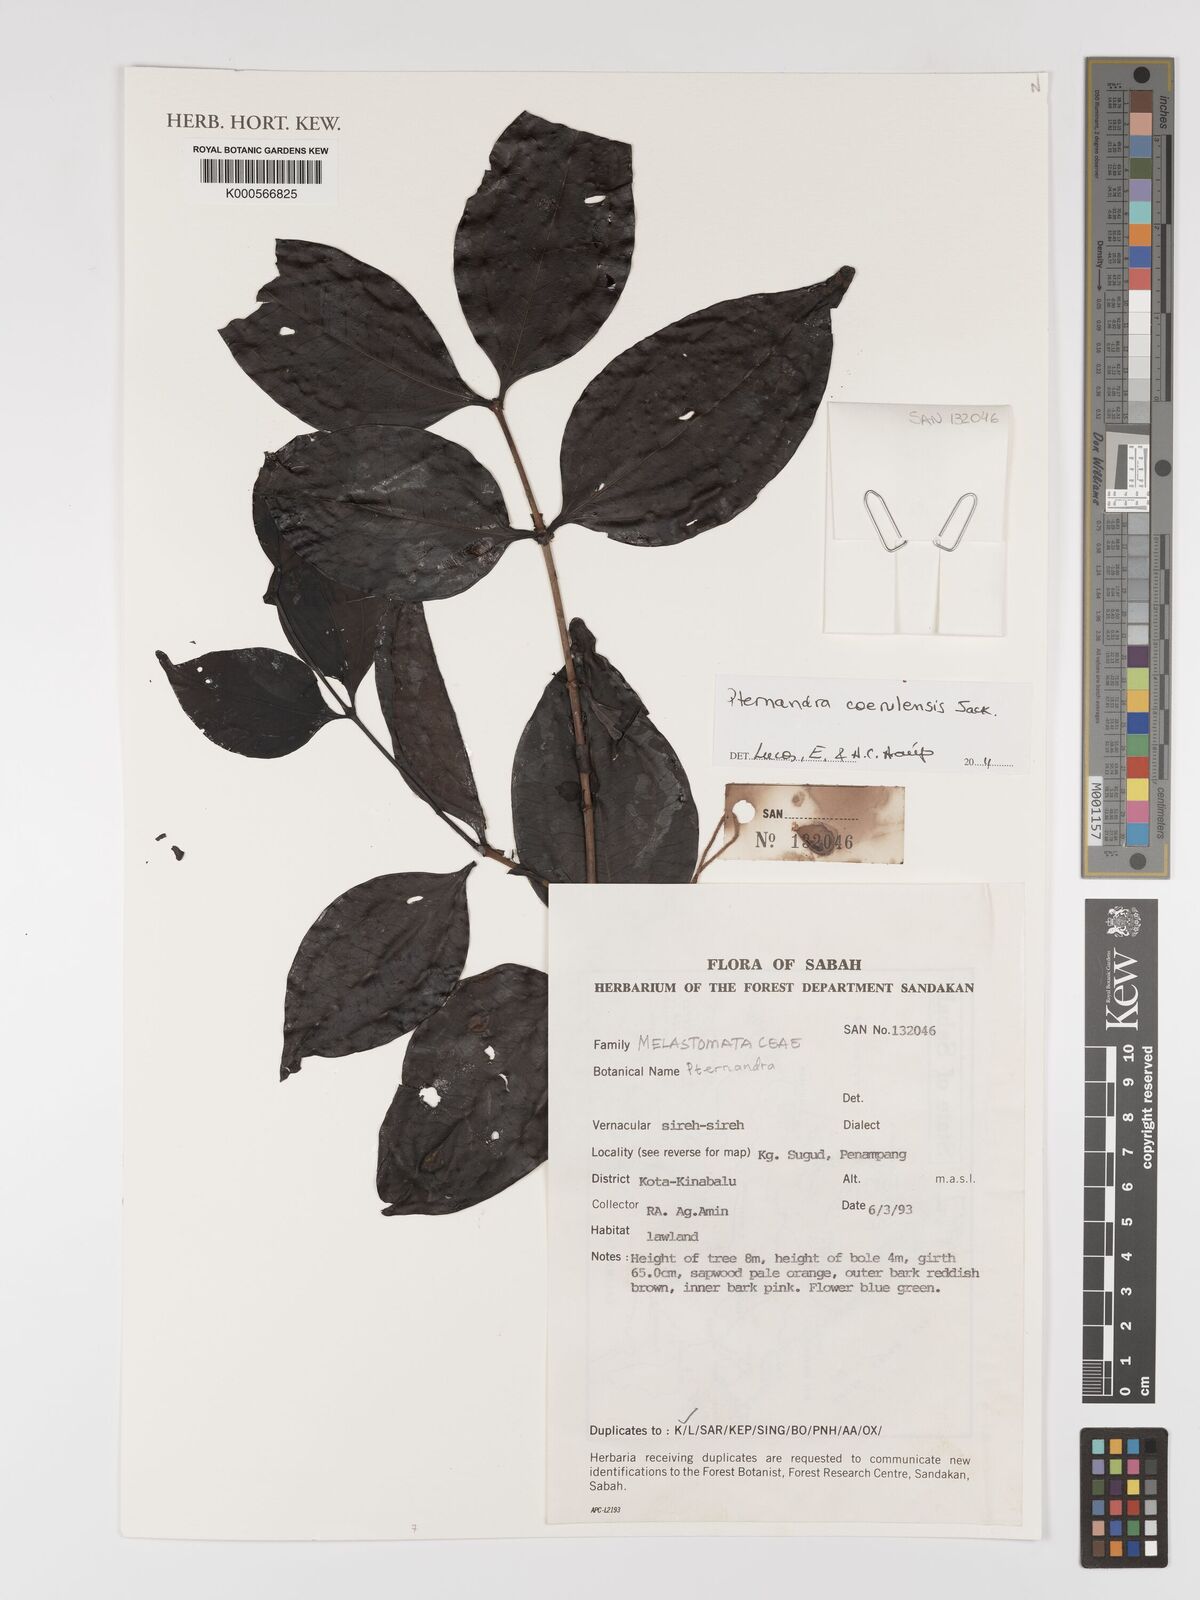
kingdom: Plantae
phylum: Tracheophyta
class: Magnoliopsida
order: Myrtales
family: Melastomataceae
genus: Pternandra
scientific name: Pternandra
